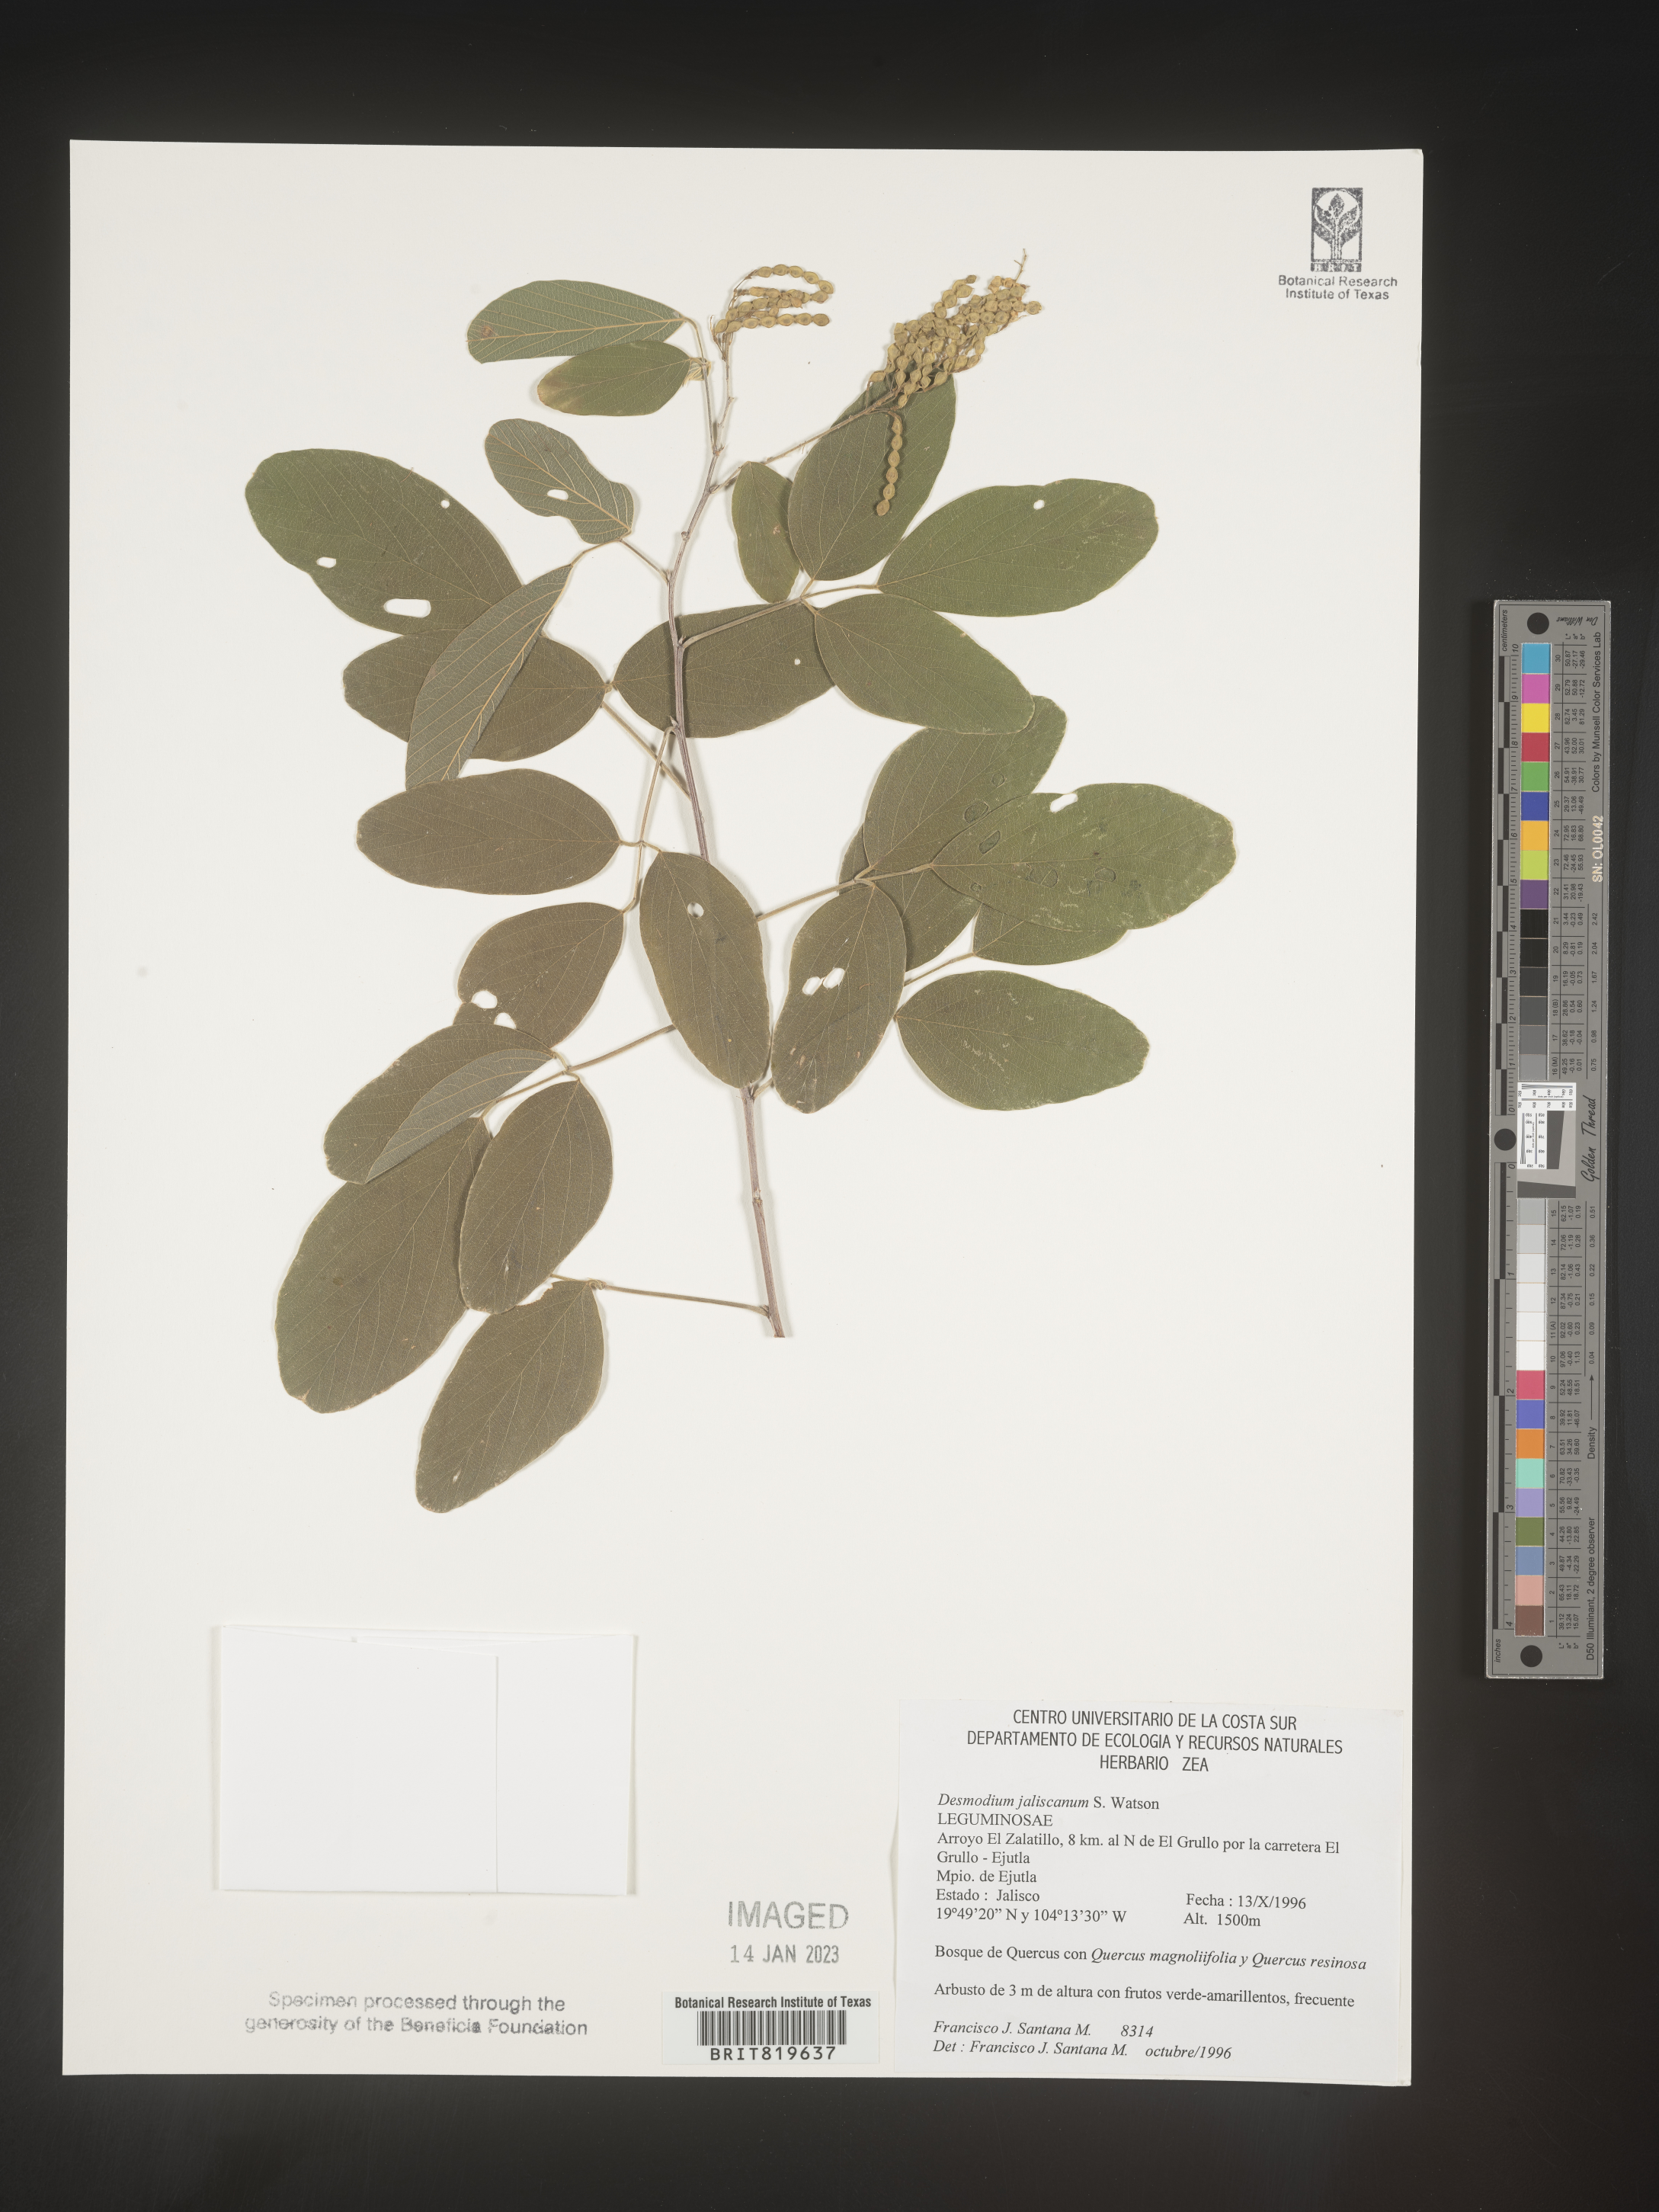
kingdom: Plantae
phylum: Tracheophyta
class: Magnoliopsida
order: Fabales
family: Fabaceae
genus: Desmodium
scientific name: Desmodium
